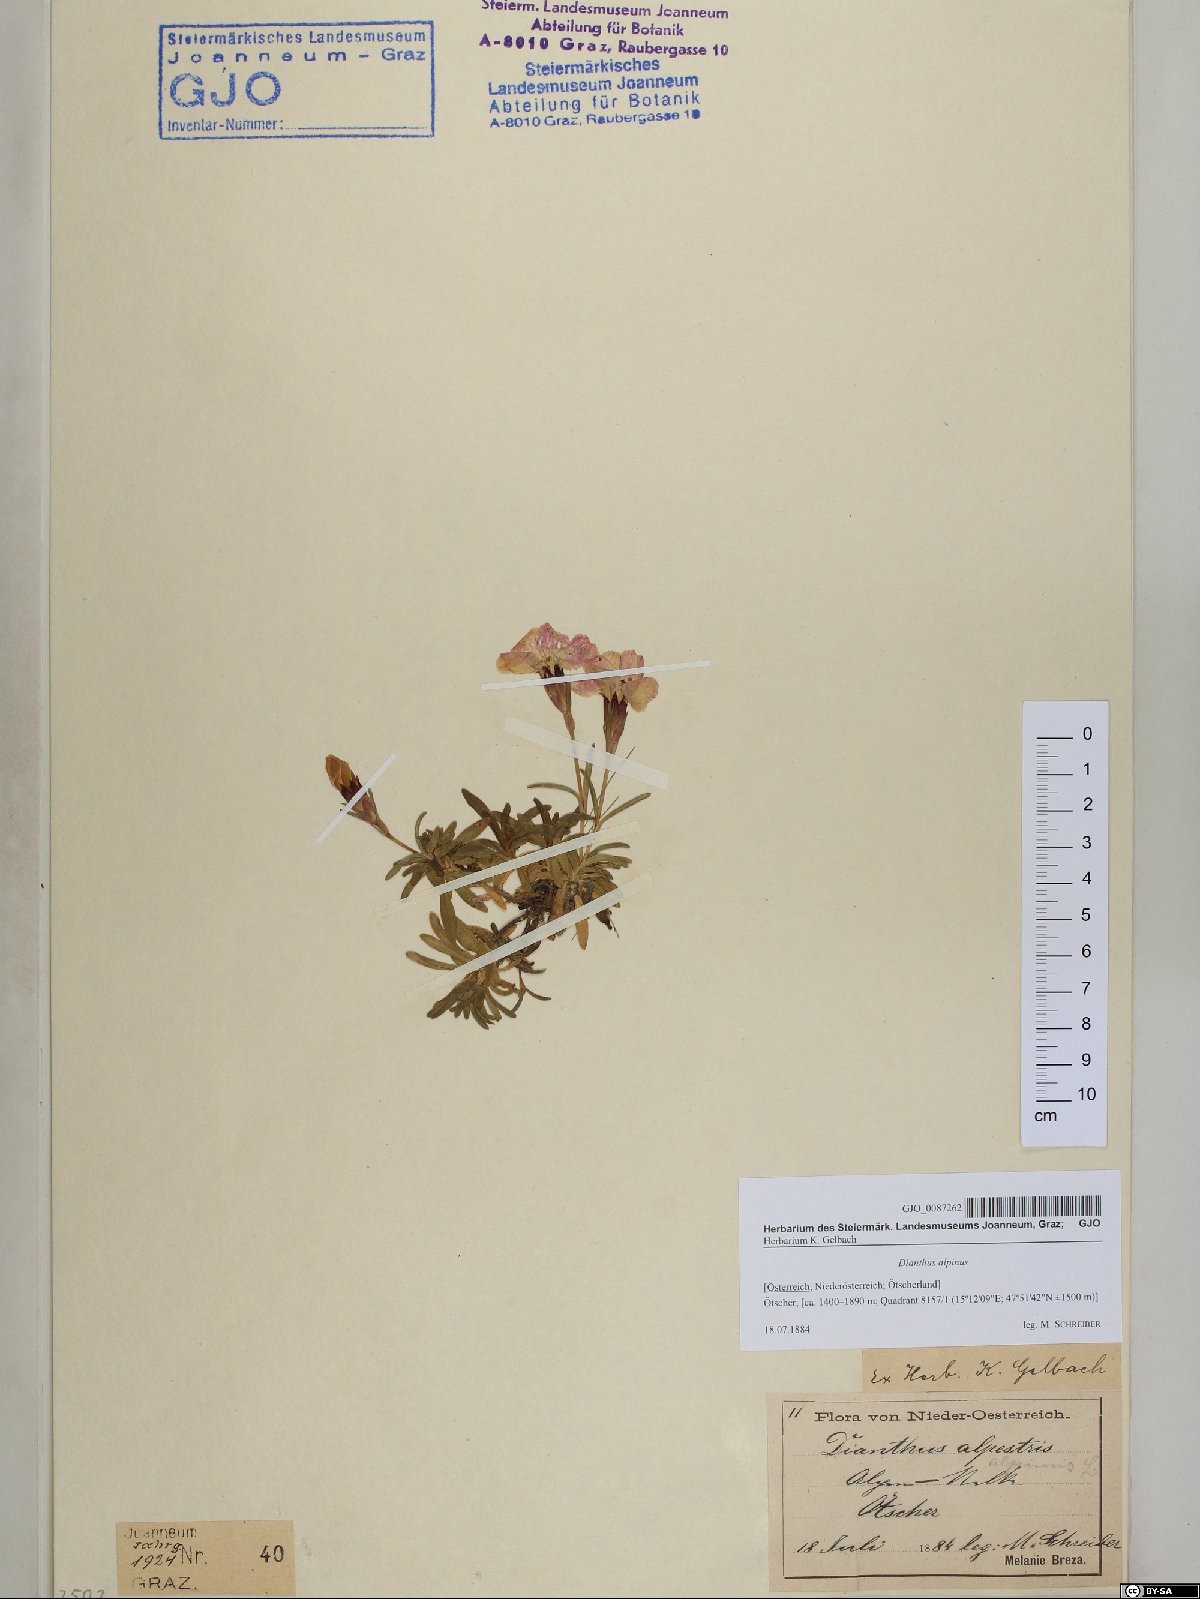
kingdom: Plantae
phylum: Tracheophyta
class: Magnoliopsida
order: Caryophyllales
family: Caryophyllaceae
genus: Dianthus
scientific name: Dianthus alpinus
